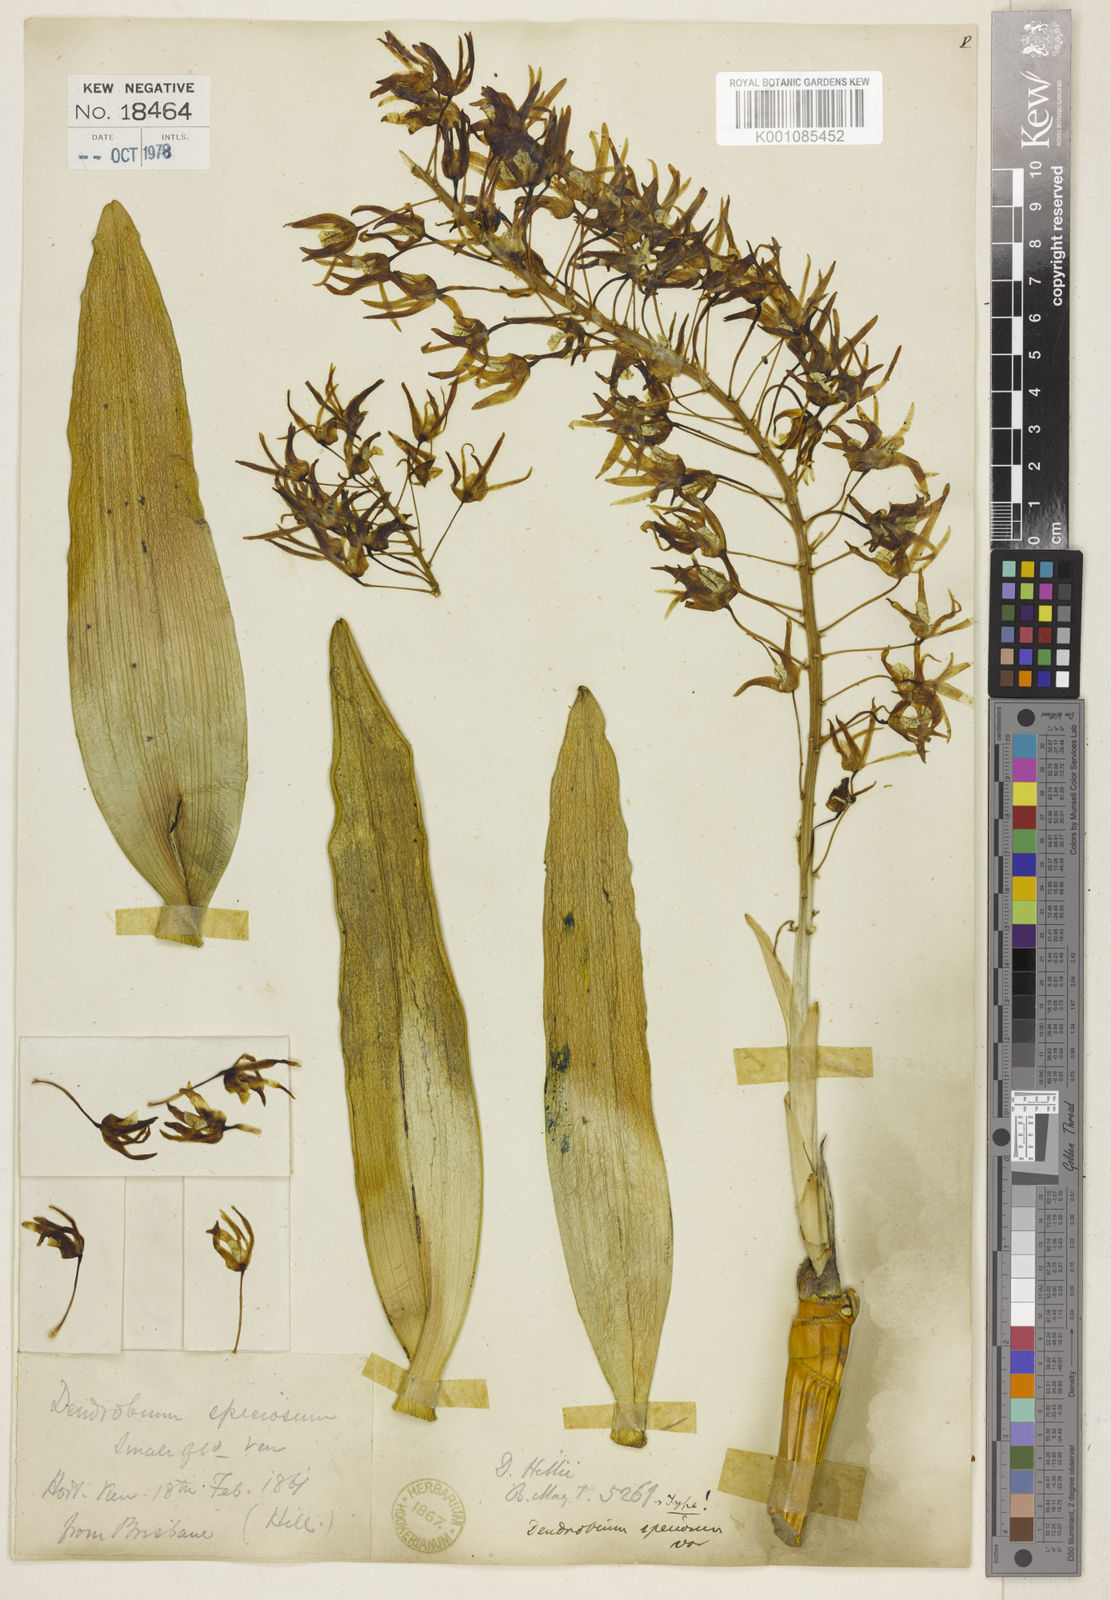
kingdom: Plantae
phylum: Tracheophyta
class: Liliopsida
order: Asparagales
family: Orchidaceae
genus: Dendrobium
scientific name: Dendrobium jonesii
